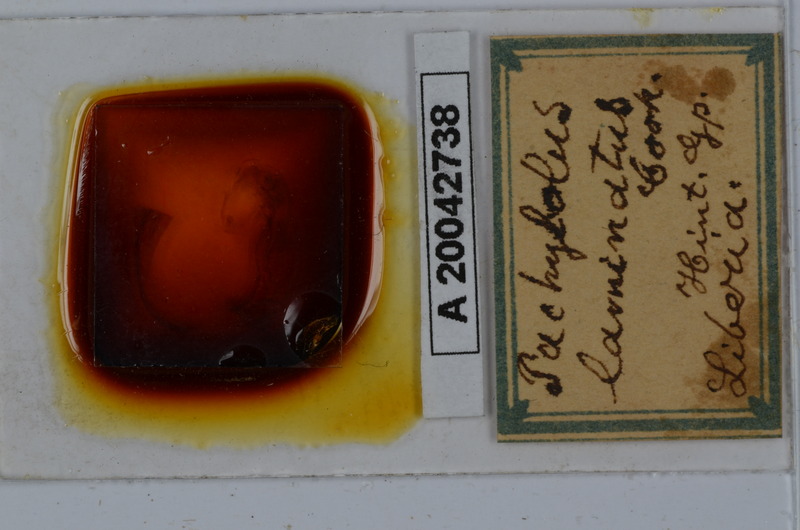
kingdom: Animalia
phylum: Arthropoda
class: Diplopoda
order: Spirobolida
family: Pachybolidae
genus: Pelmatojulus
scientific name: Pelmatojulus laminatus
